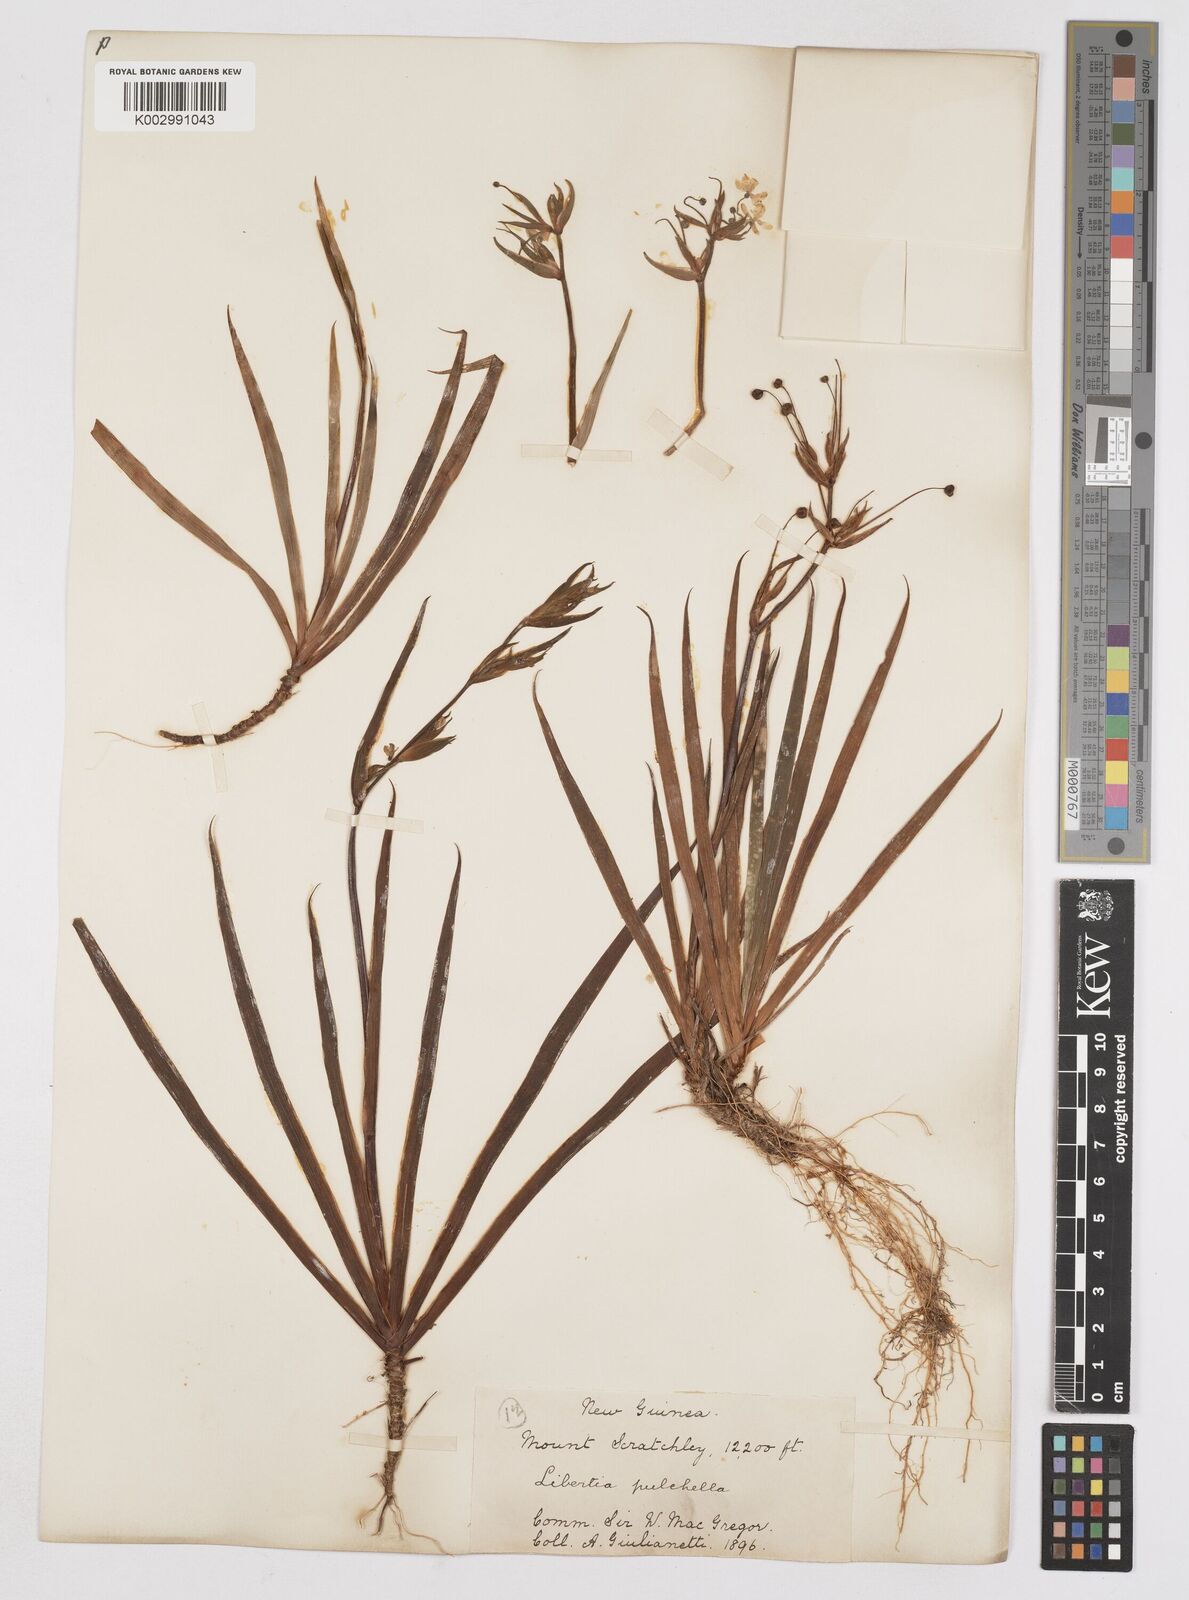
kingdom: Plantae
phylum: Tracheophyta
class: Liliopsida
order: Asparagales
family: Iridaceae
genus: Libertia
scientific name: Libertia pulchella
